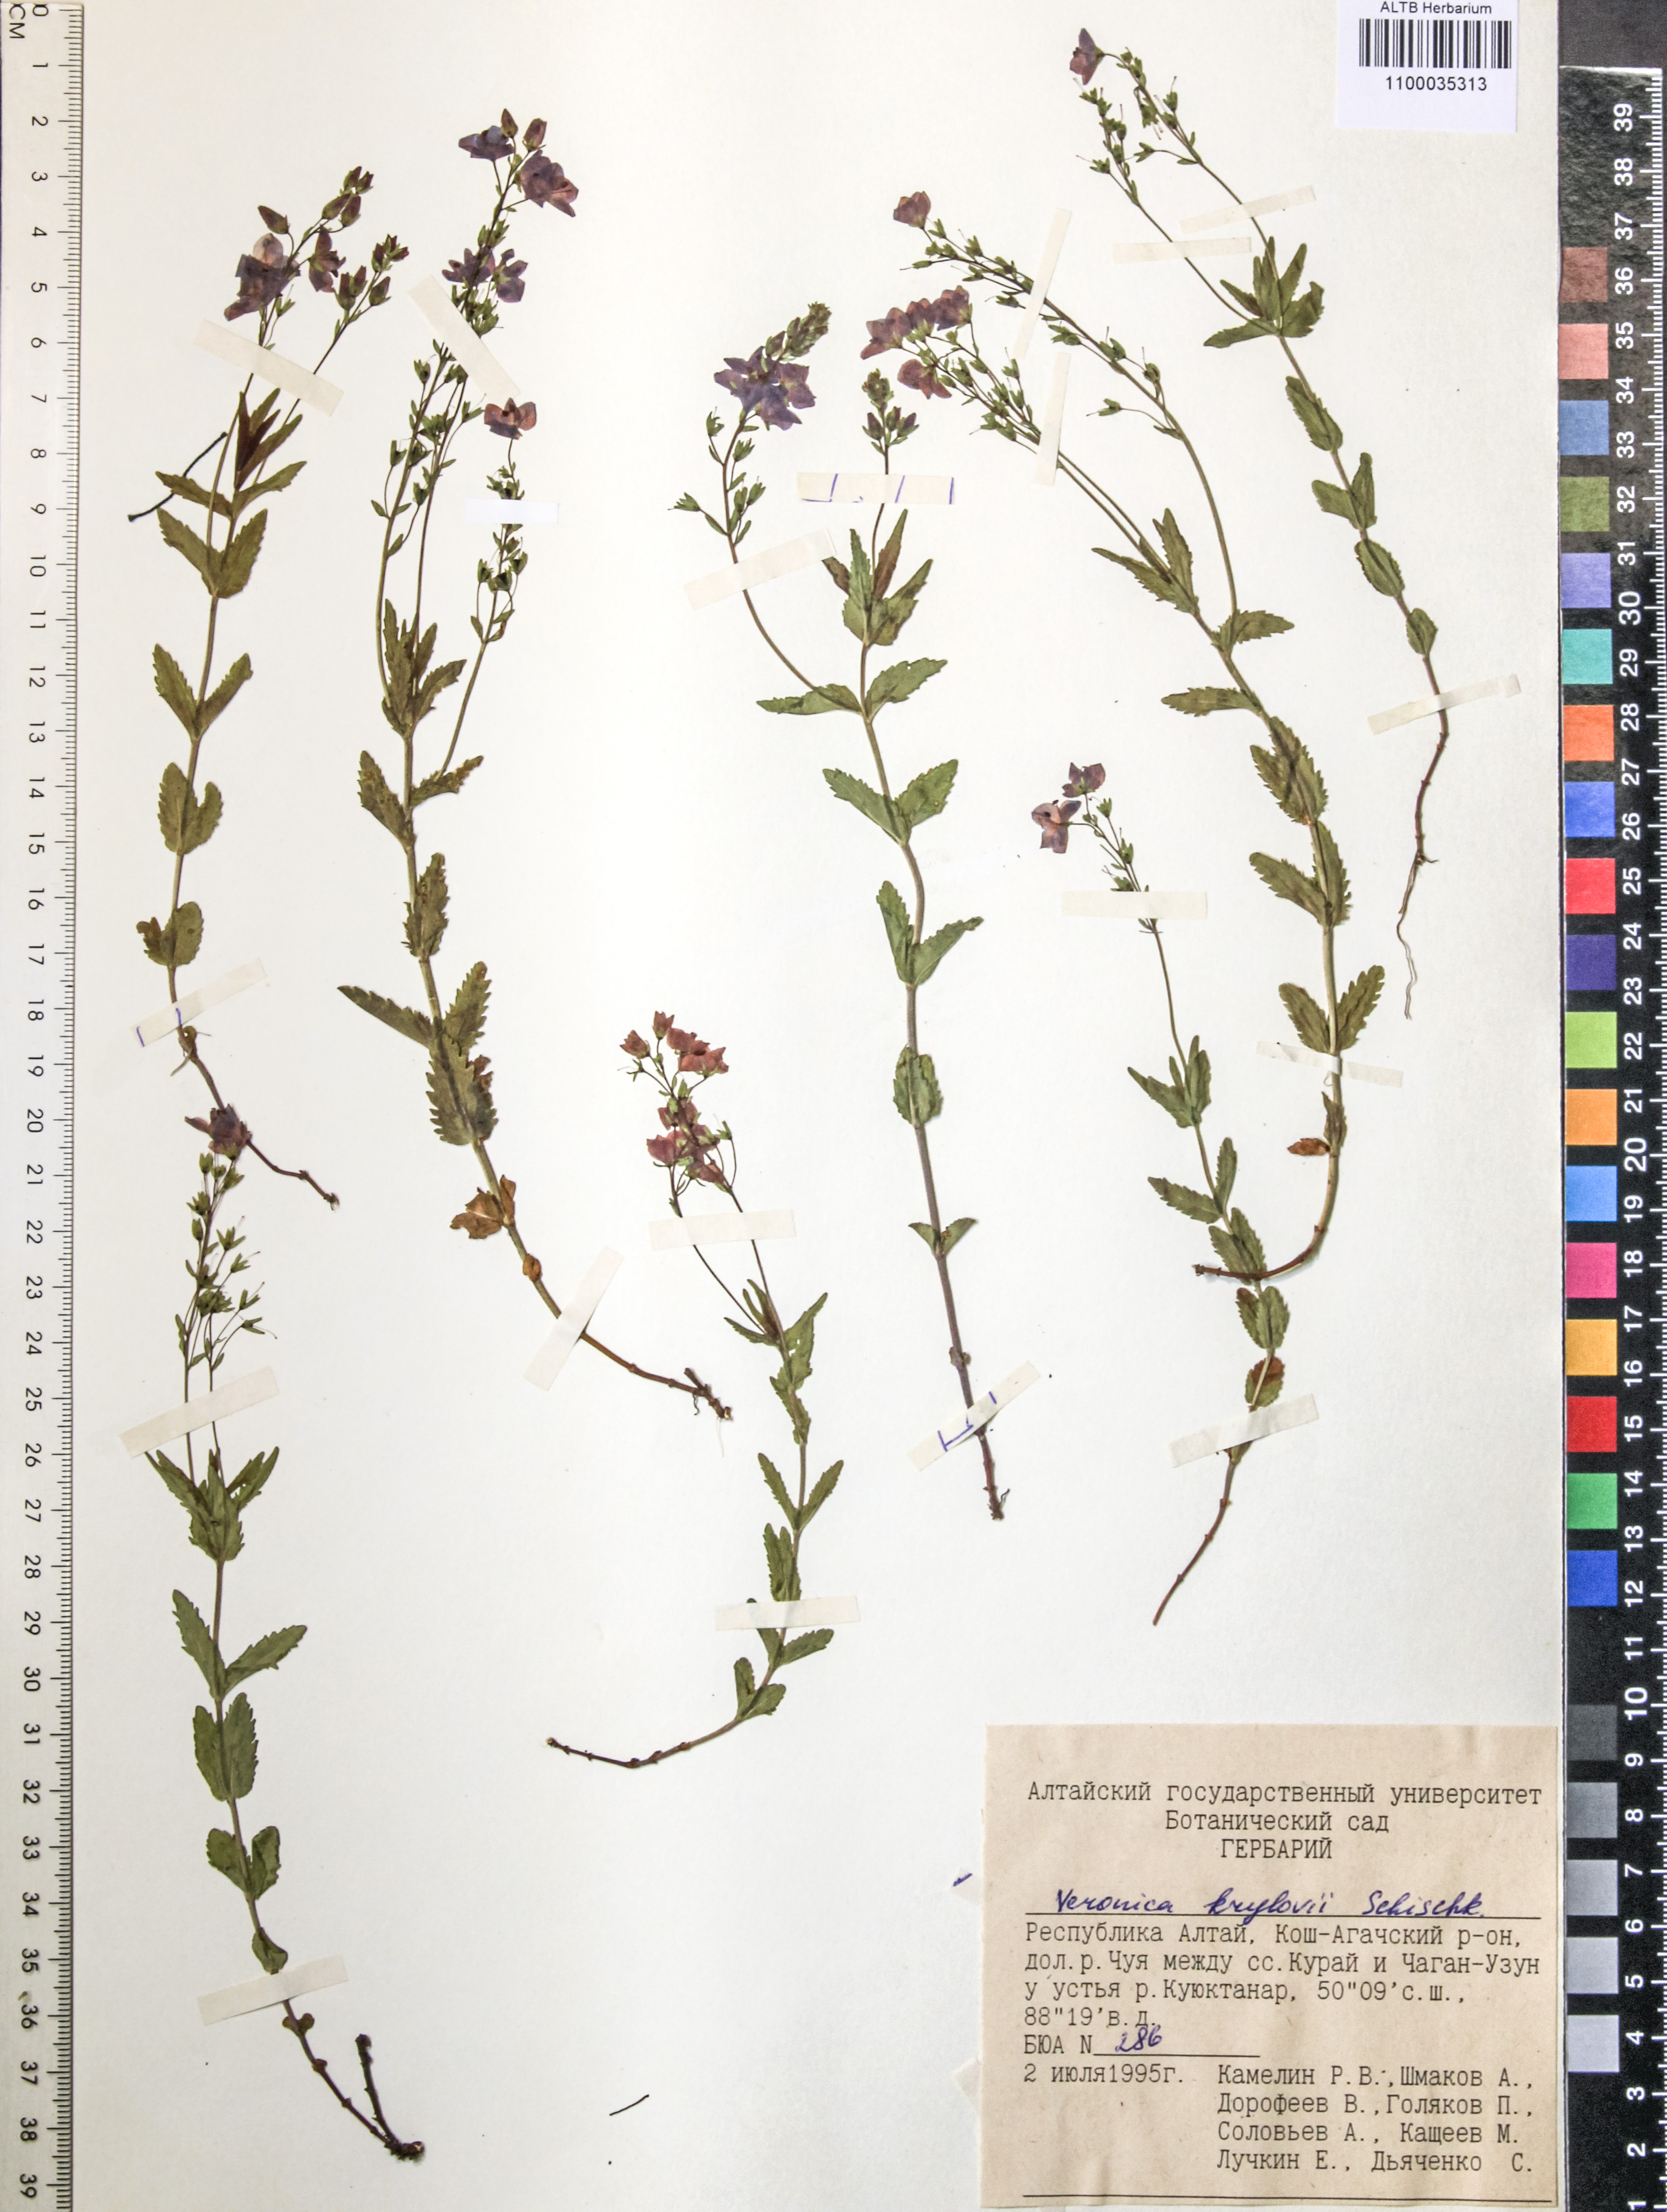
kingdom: Plantae
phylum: Tracheophyta
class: Magnoliopsida
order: Lamiales
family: Plantaginaceae
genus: Veronica
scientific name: Veronica krylovii
